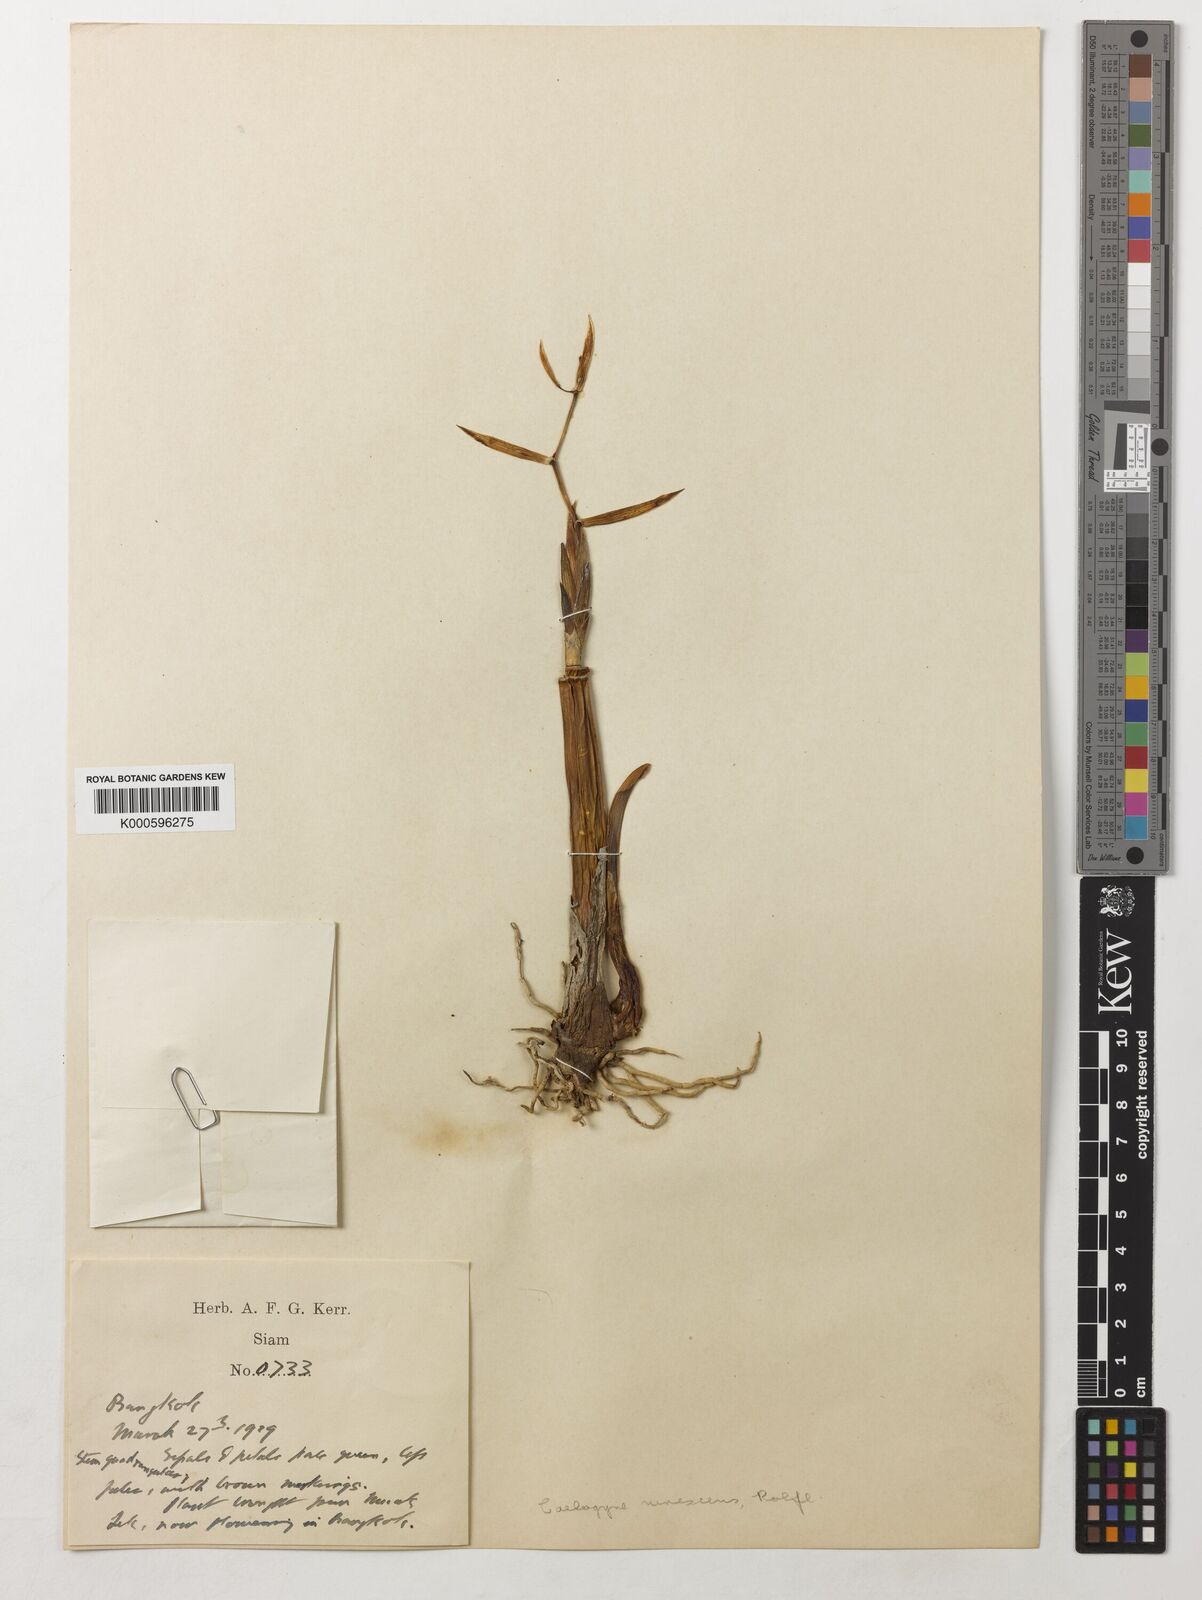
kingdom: Plantae
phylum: Tracheophyta
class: Liliopsida
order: Asparagales
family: Orchidaceae
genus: Coelogyne
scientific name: Coelogyne brachyptera
